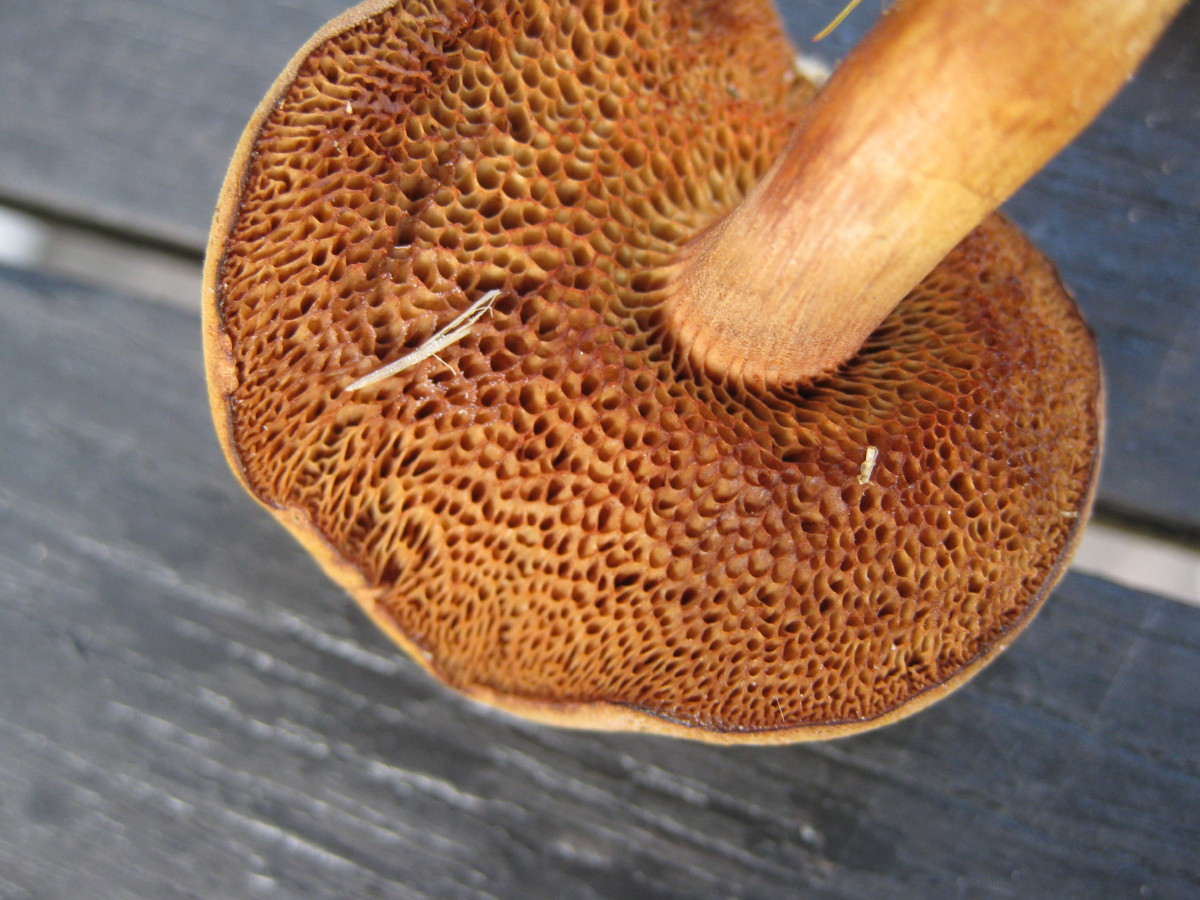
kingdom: Fungi
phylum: Basidiomycota
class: Agaricomycetes
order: Boletales
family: Boletaceae
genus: Chalciporus
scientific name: Chalciporus piperatus
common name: peberrørhat
